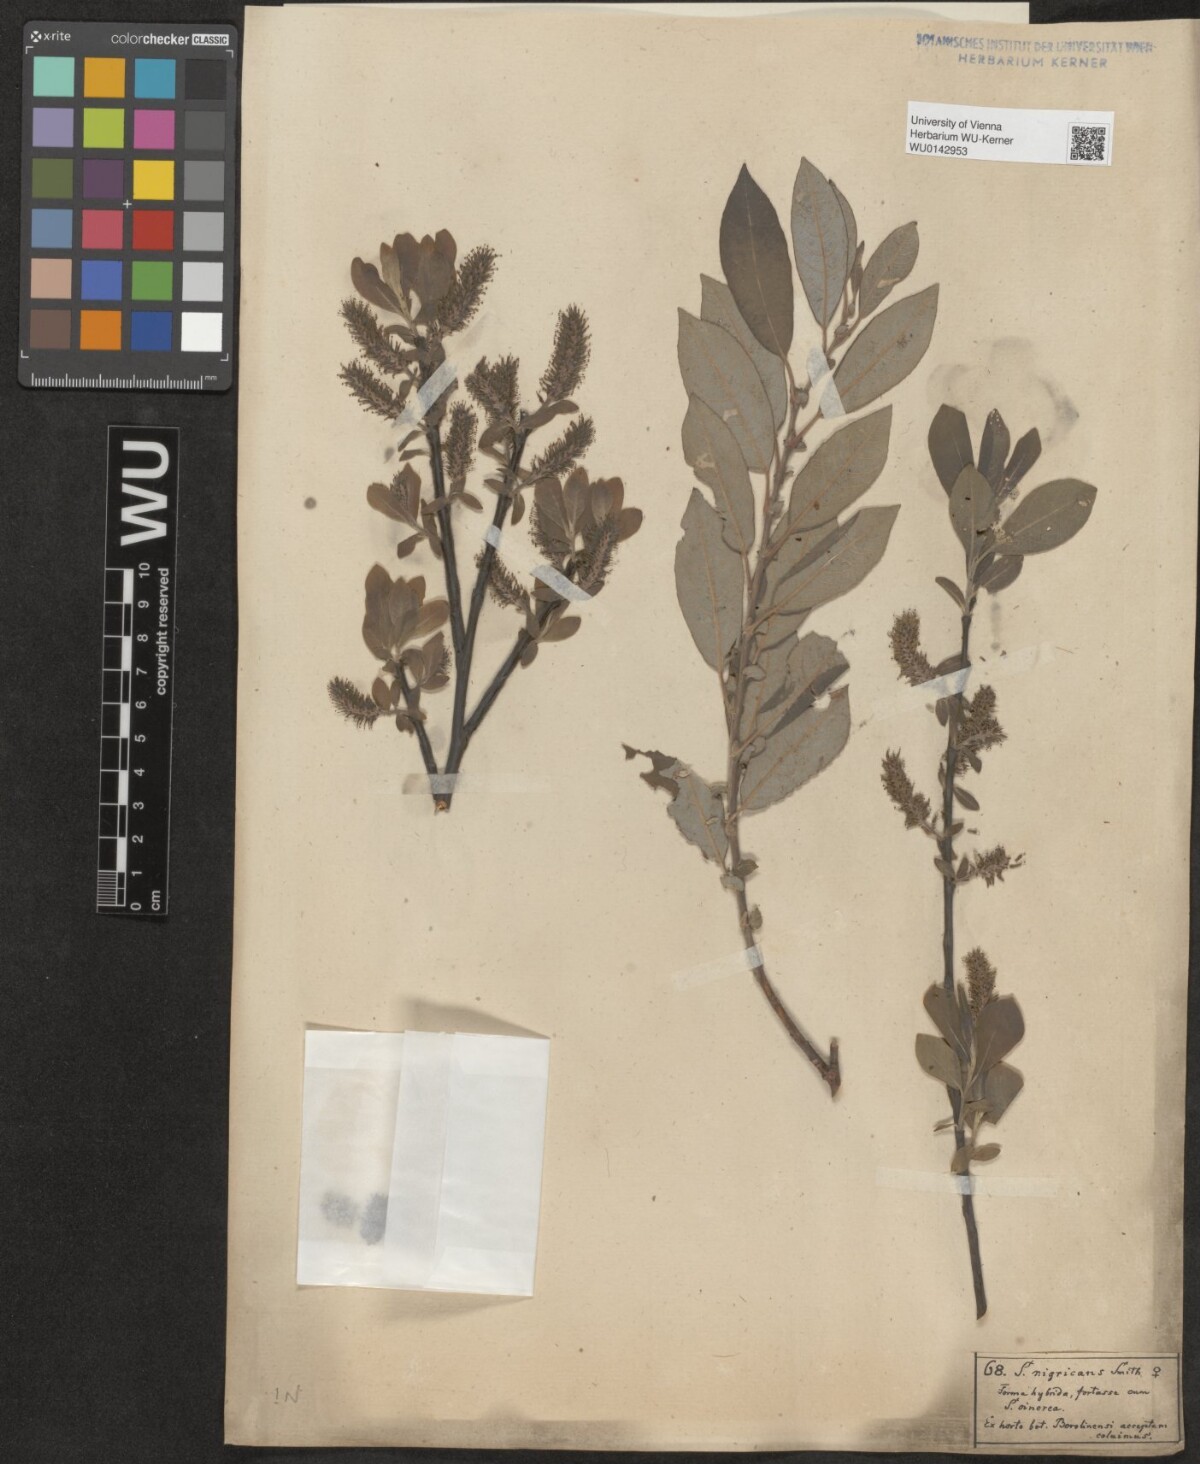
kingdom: Plantae
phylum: Tracheophyta
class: Magnoliopsida
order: Malpighiales
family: Salicaceae
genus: Salix
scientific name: Salix myrsinifolia
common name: Dark-leaved willow
